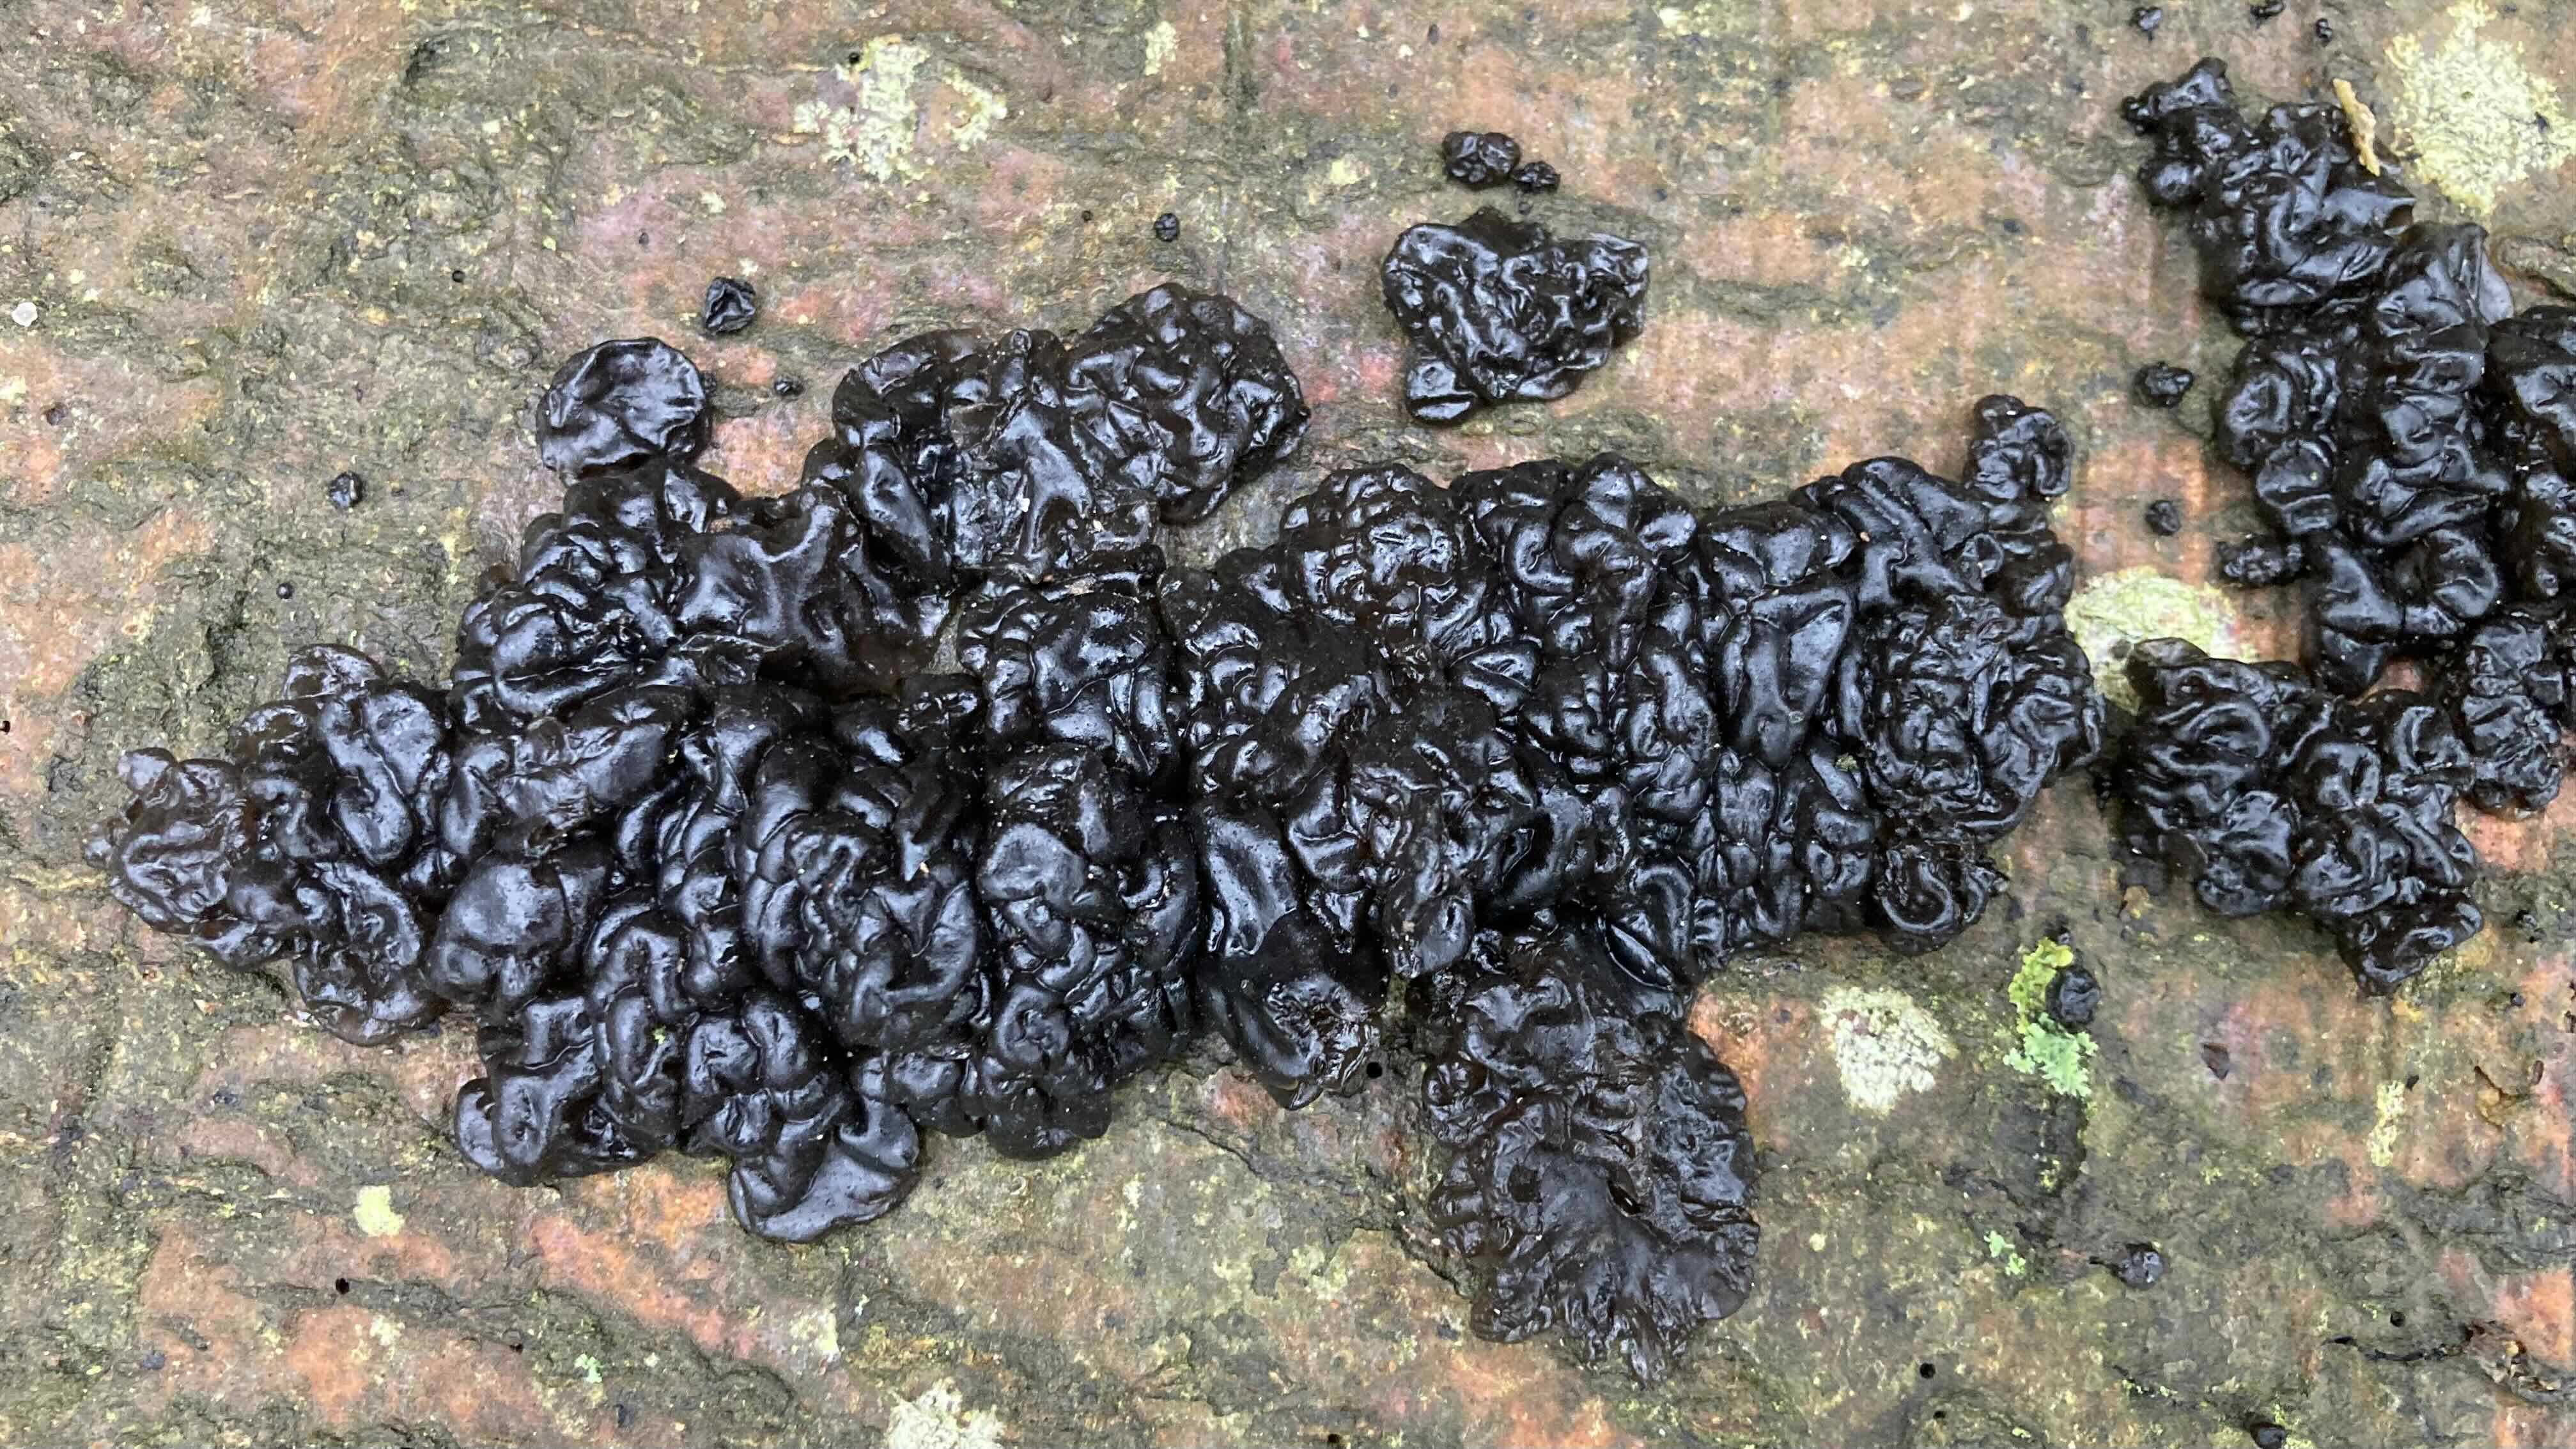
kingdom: Fungi
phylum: Basidiomycota
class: Agaricomycetes
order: Auriculariales
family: Auriculariaceae
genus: Exidia
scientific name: Exidia nigricans
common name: almindelig bævretop
